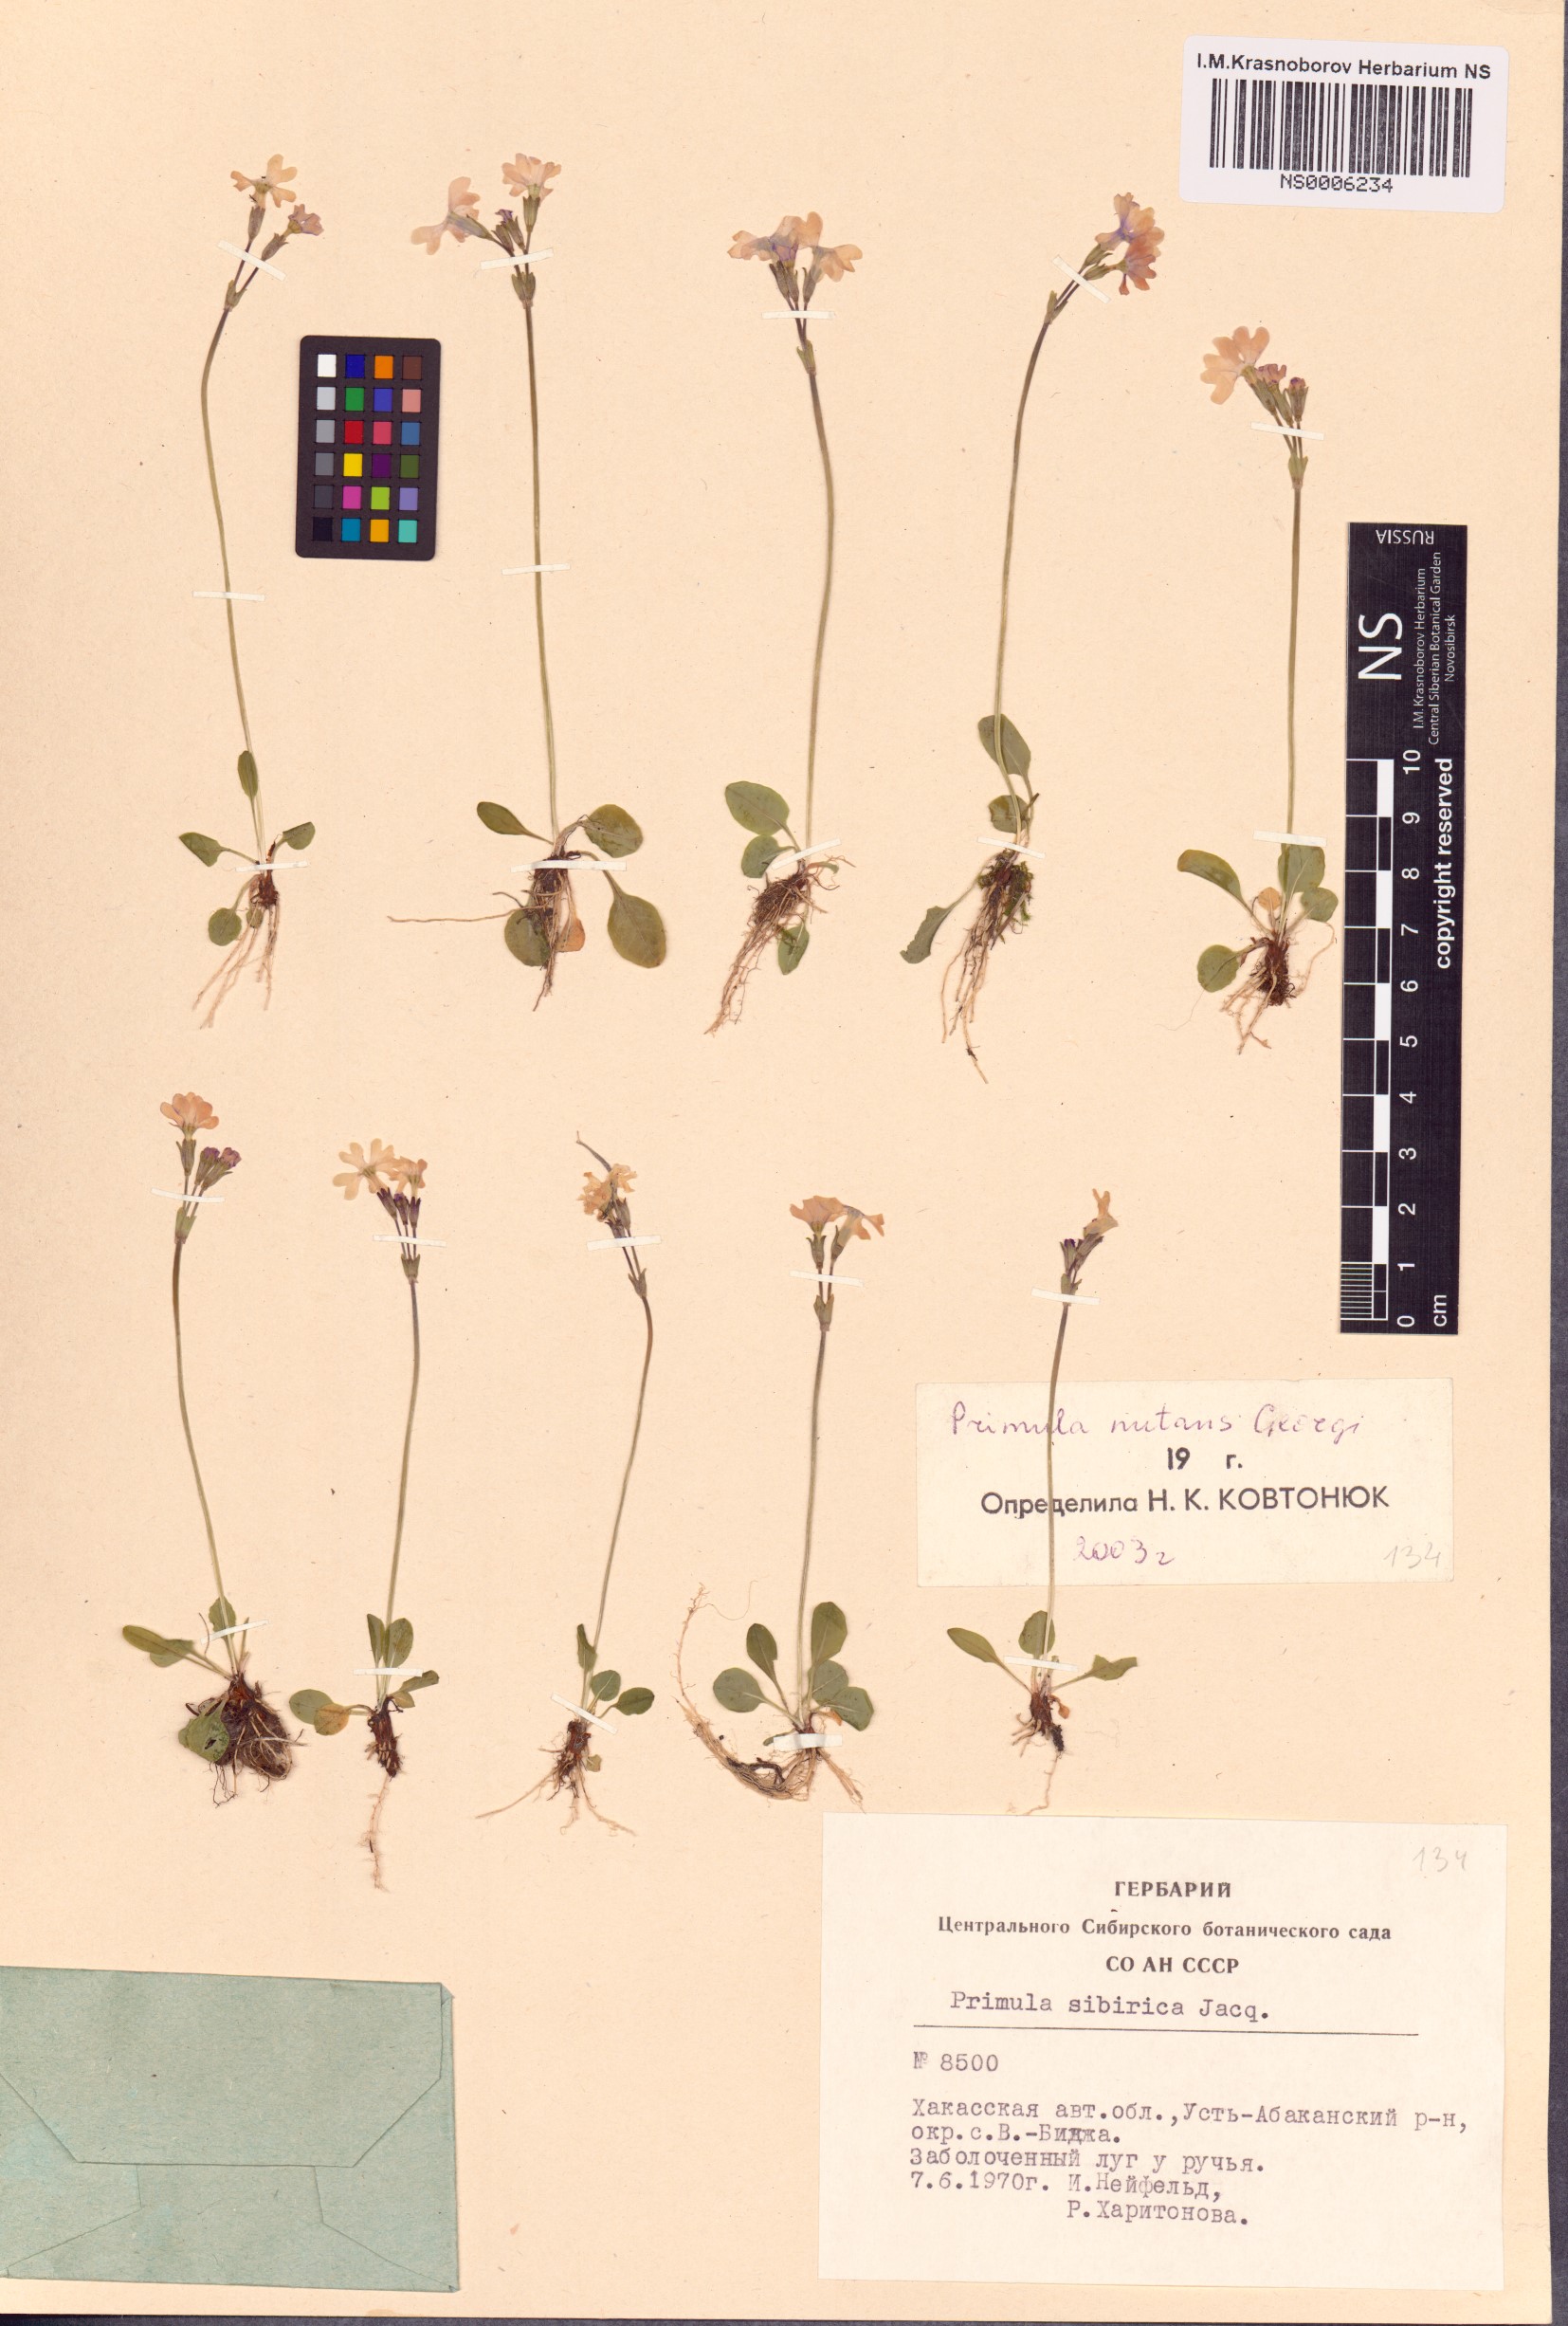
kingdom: Plantae
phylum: Tracheophyta
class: Magnoliopsida
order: Ericales
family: Primulaceae
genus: Primula
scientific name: Primula nutans
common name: Siberian primrose
